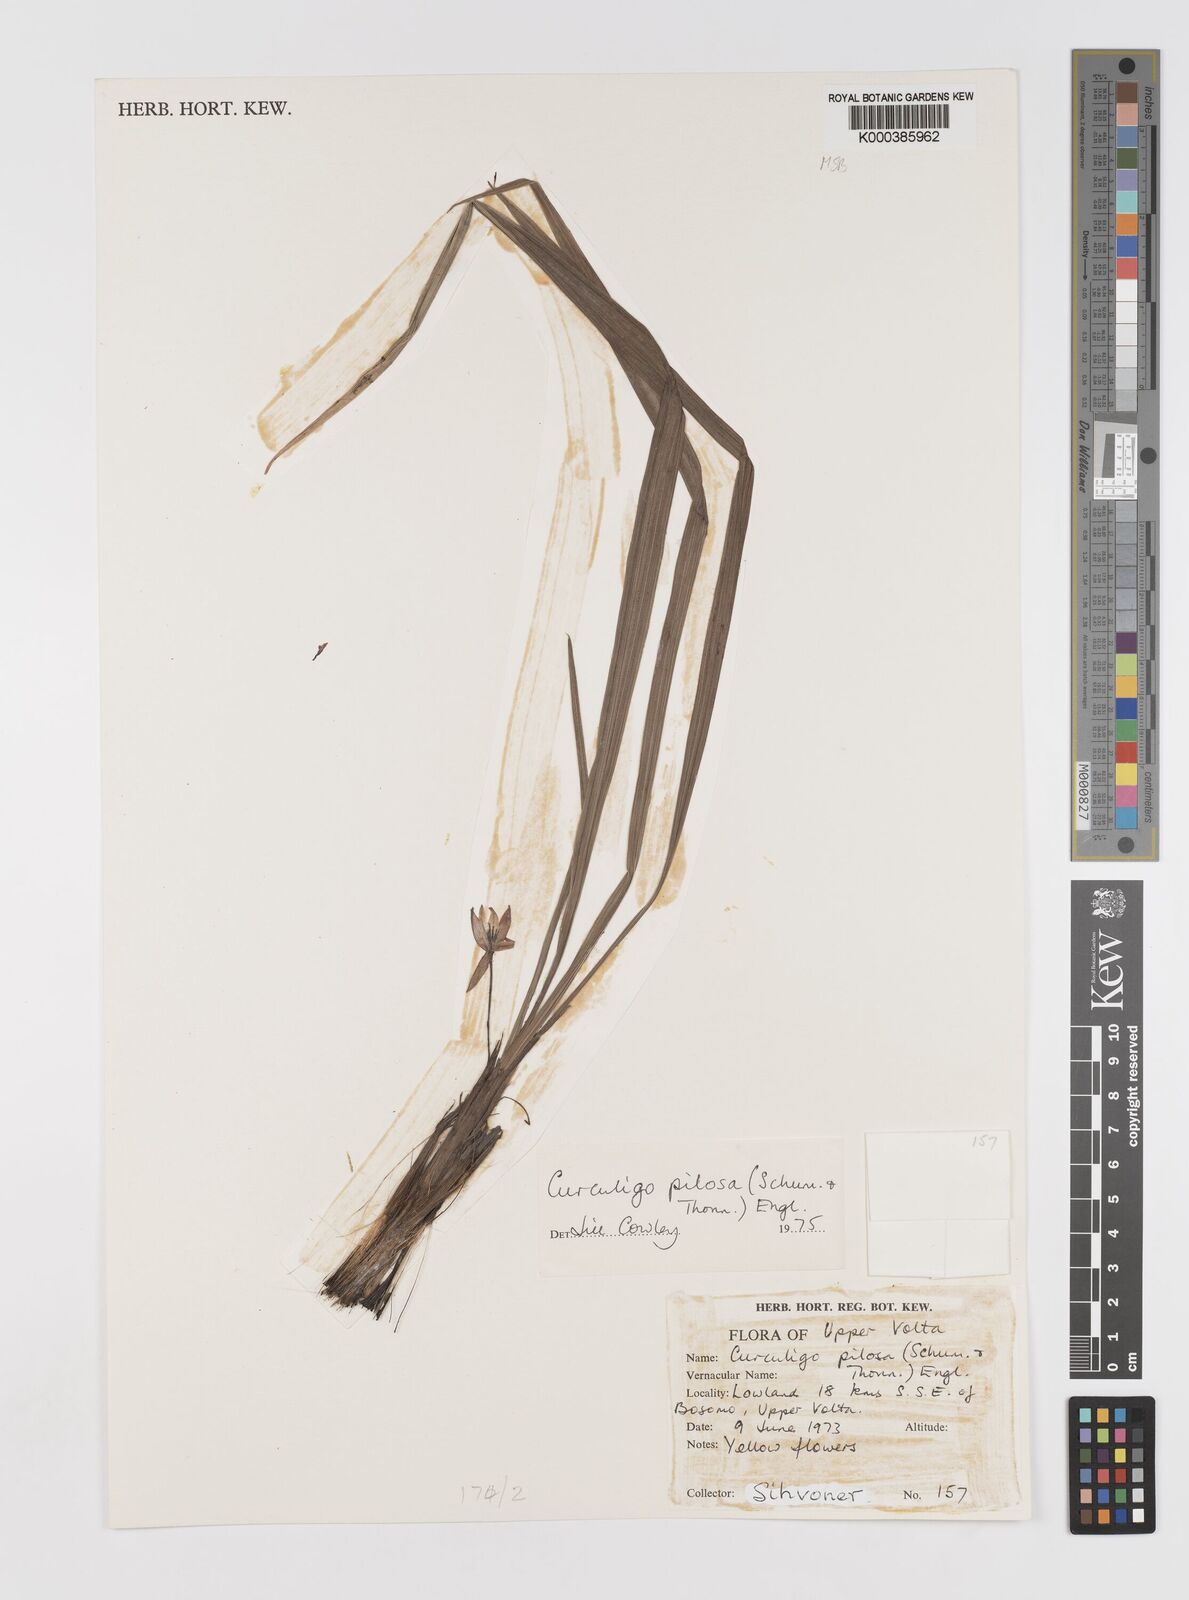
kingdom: Plantae
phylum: Tracheophyta
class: Liliopsida
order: Asparagales
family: Hypoxidaceae
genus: Curculigo
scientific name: Curculigo pilosa
